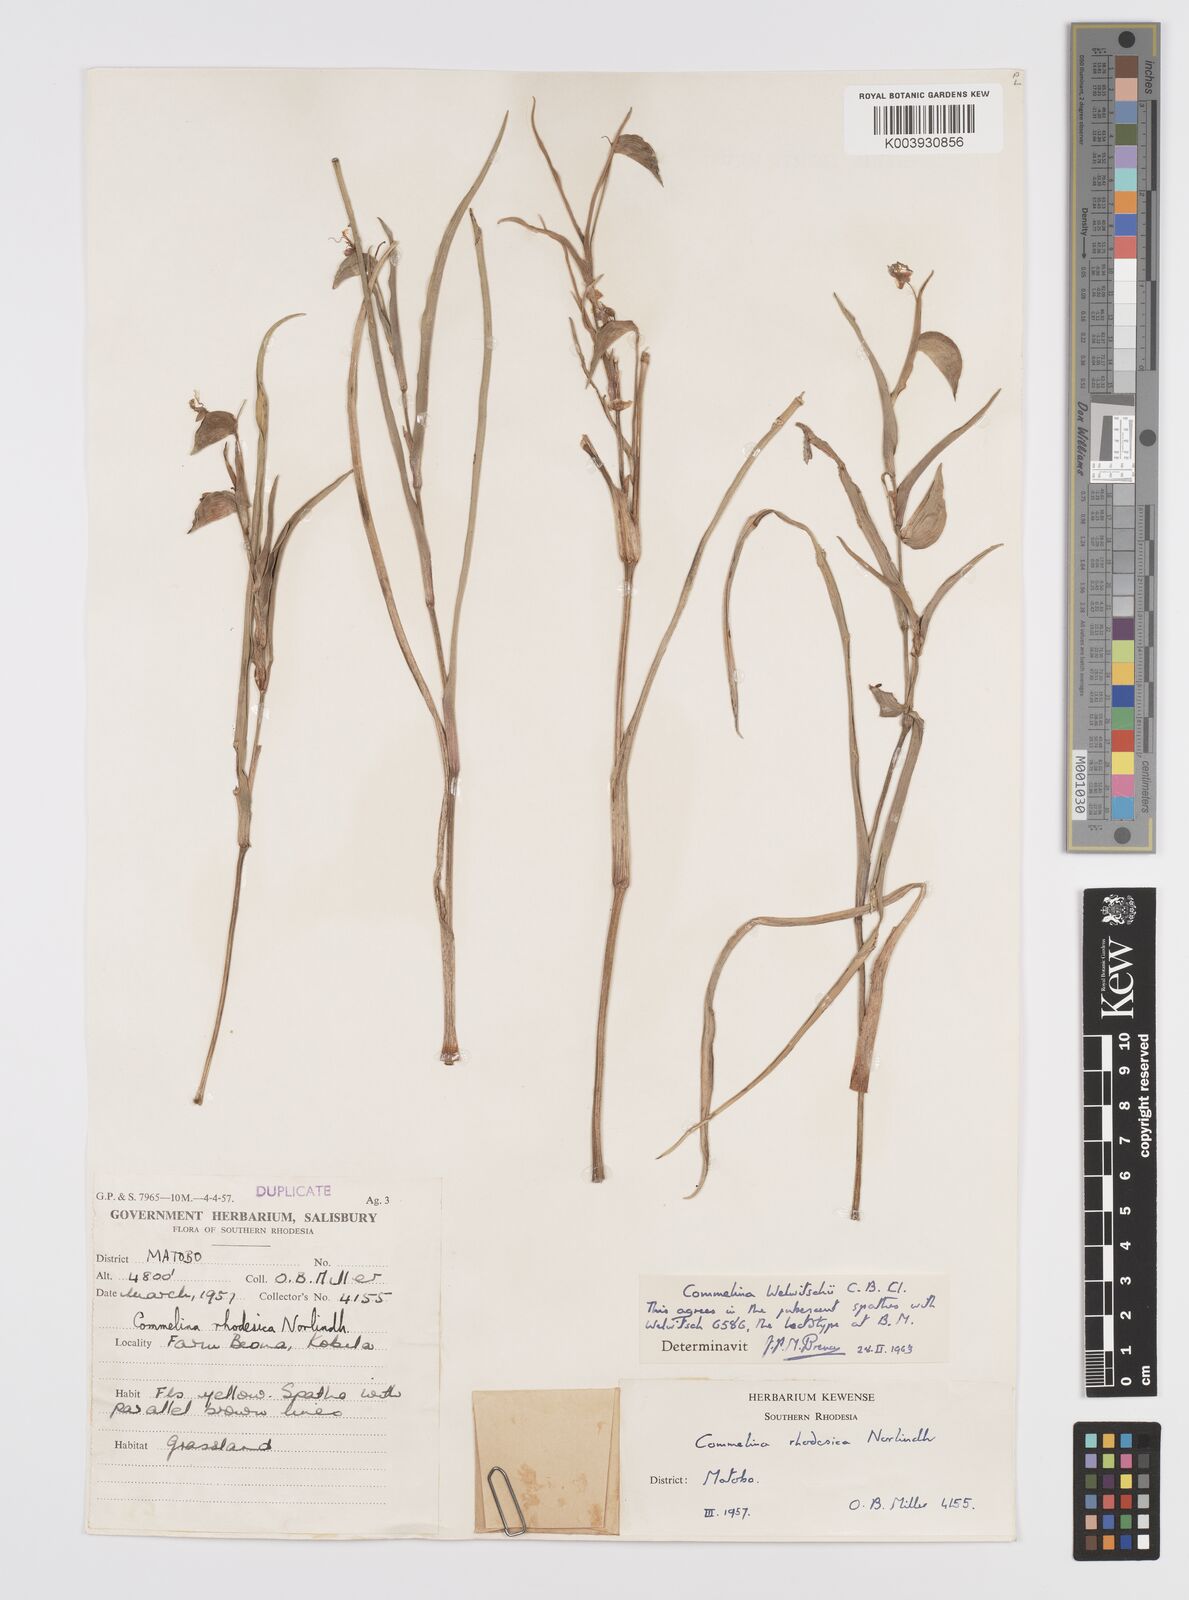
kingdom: Plantae
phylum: Tracheophyta
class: Liliopsida
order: Commelinales
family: Commelinaceae
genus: Commelina
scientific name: Commelina welwitschii
